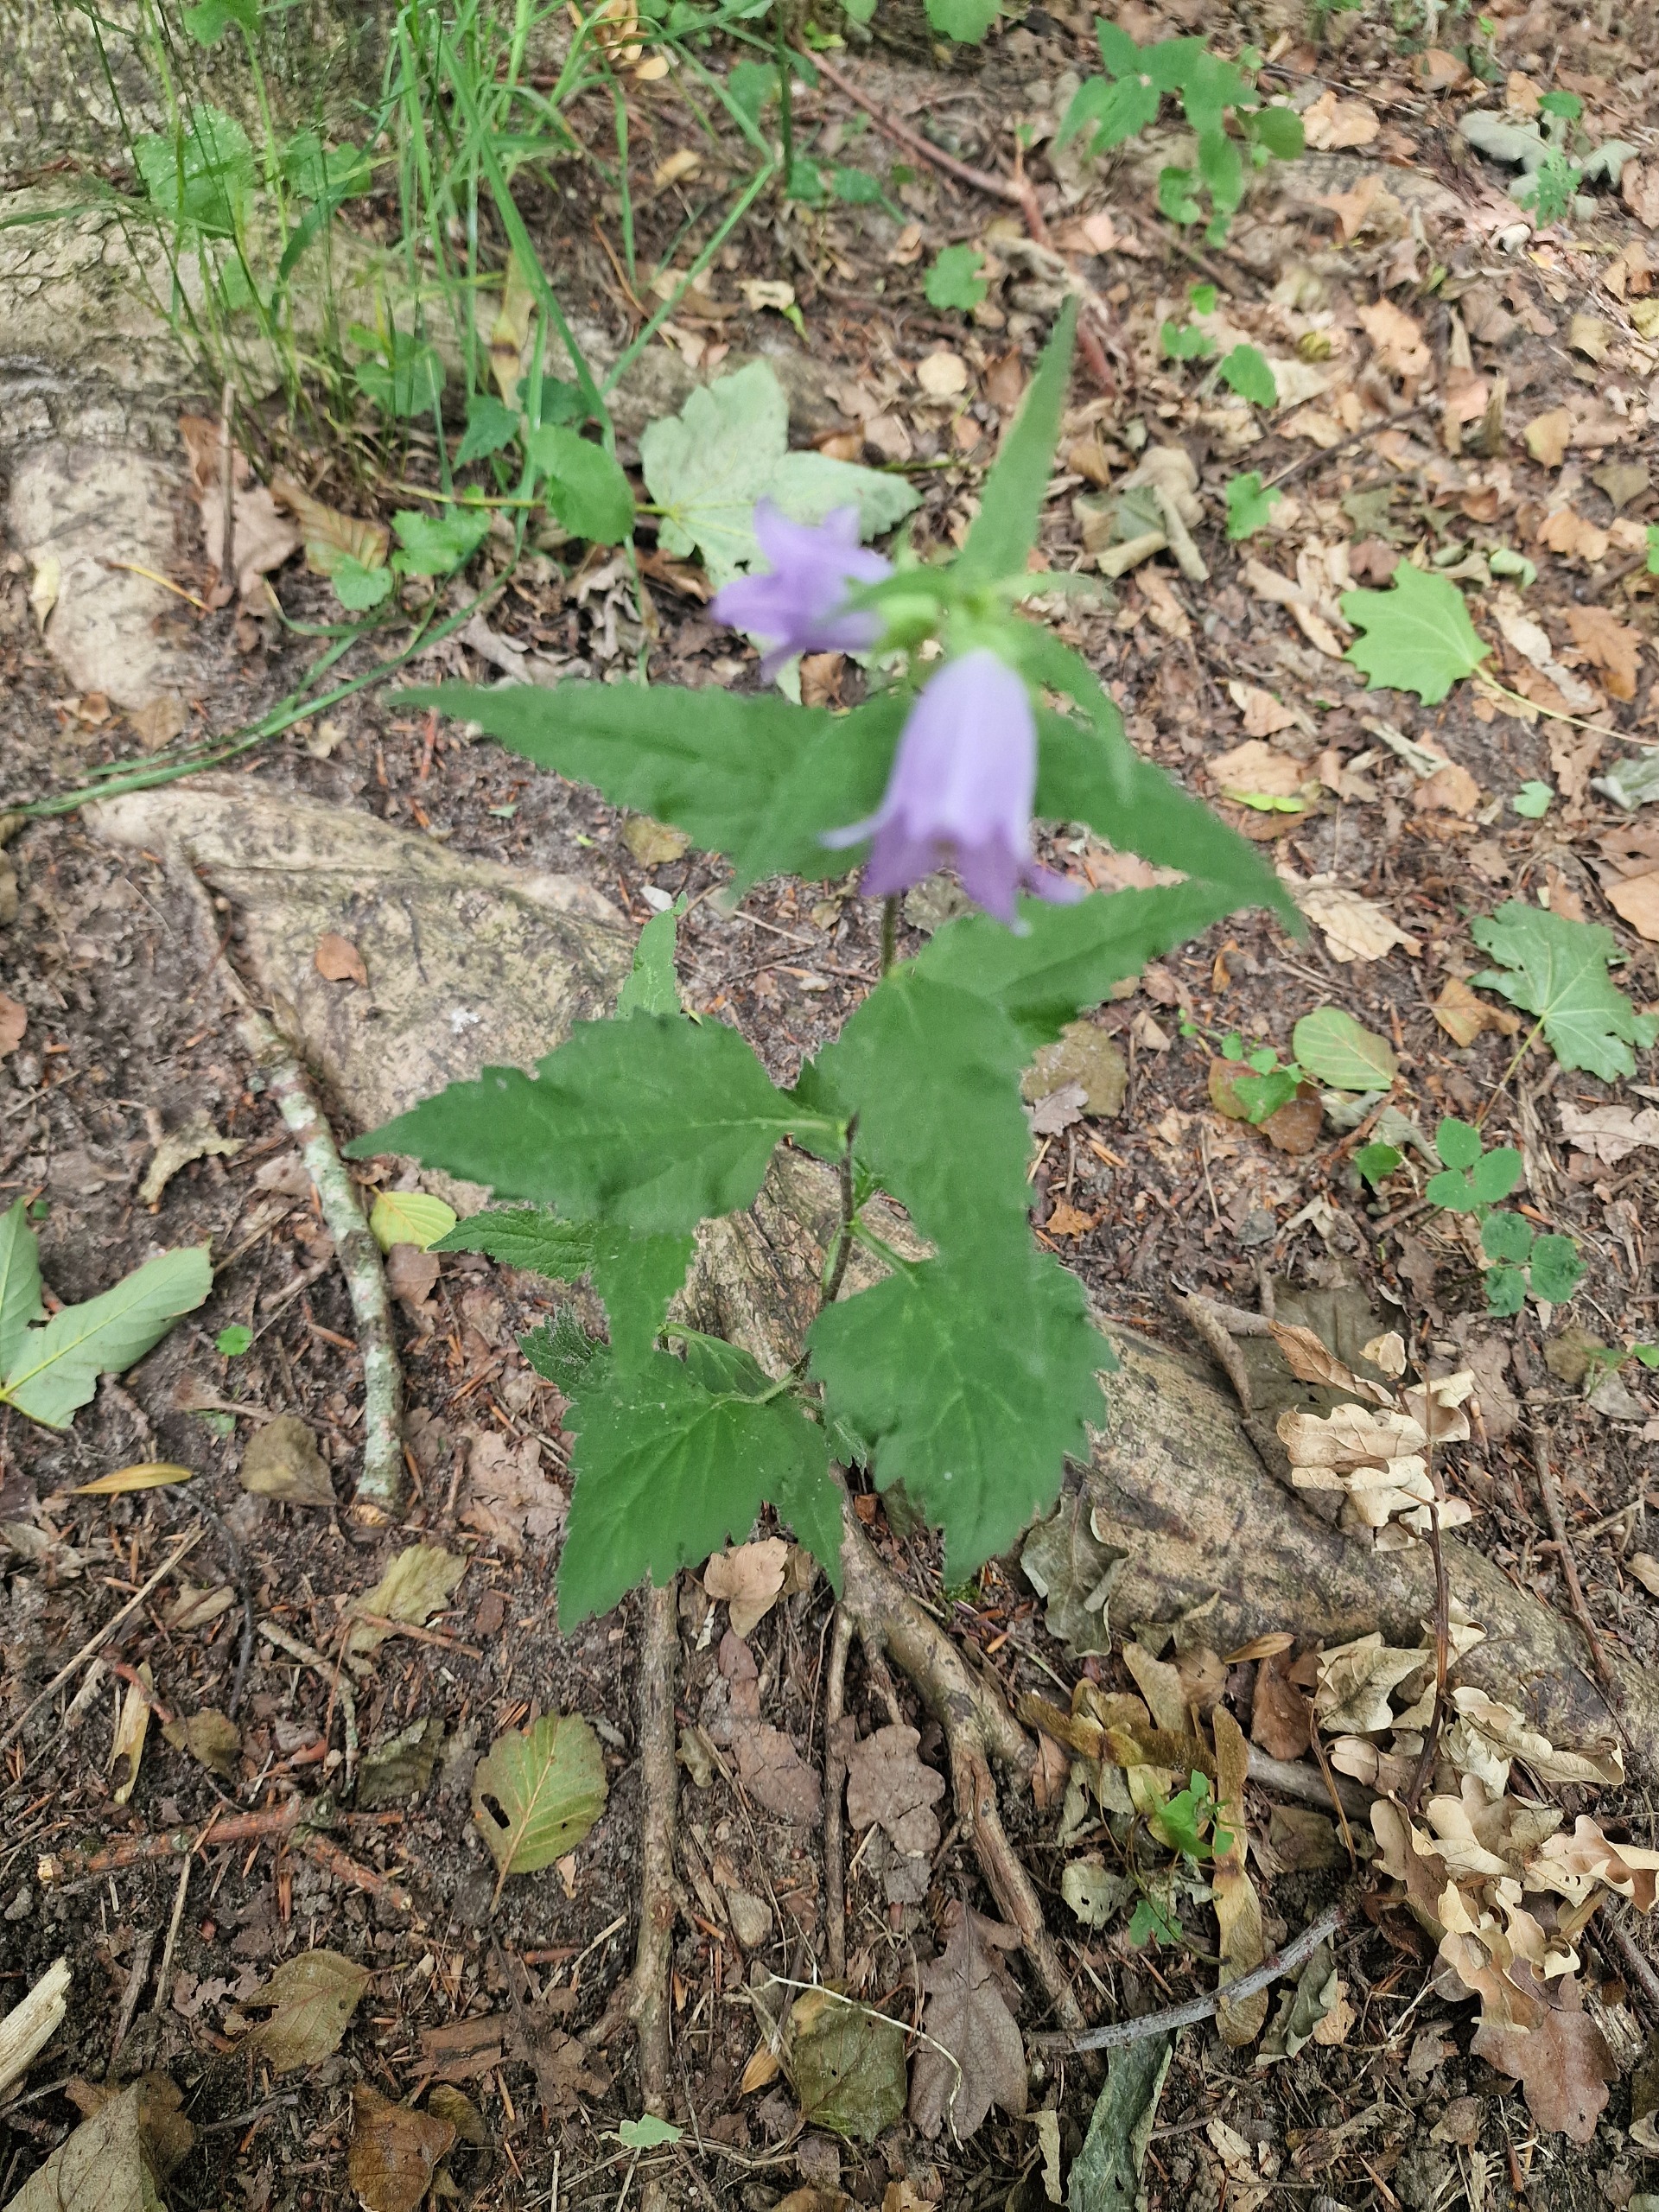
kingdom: Plantae
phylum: Tracheophyta
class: Magnoliopsida
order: Asterales
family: Campanulaceae
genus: Campanula
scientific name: Campanula trachelium
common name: Nælde-klokke
